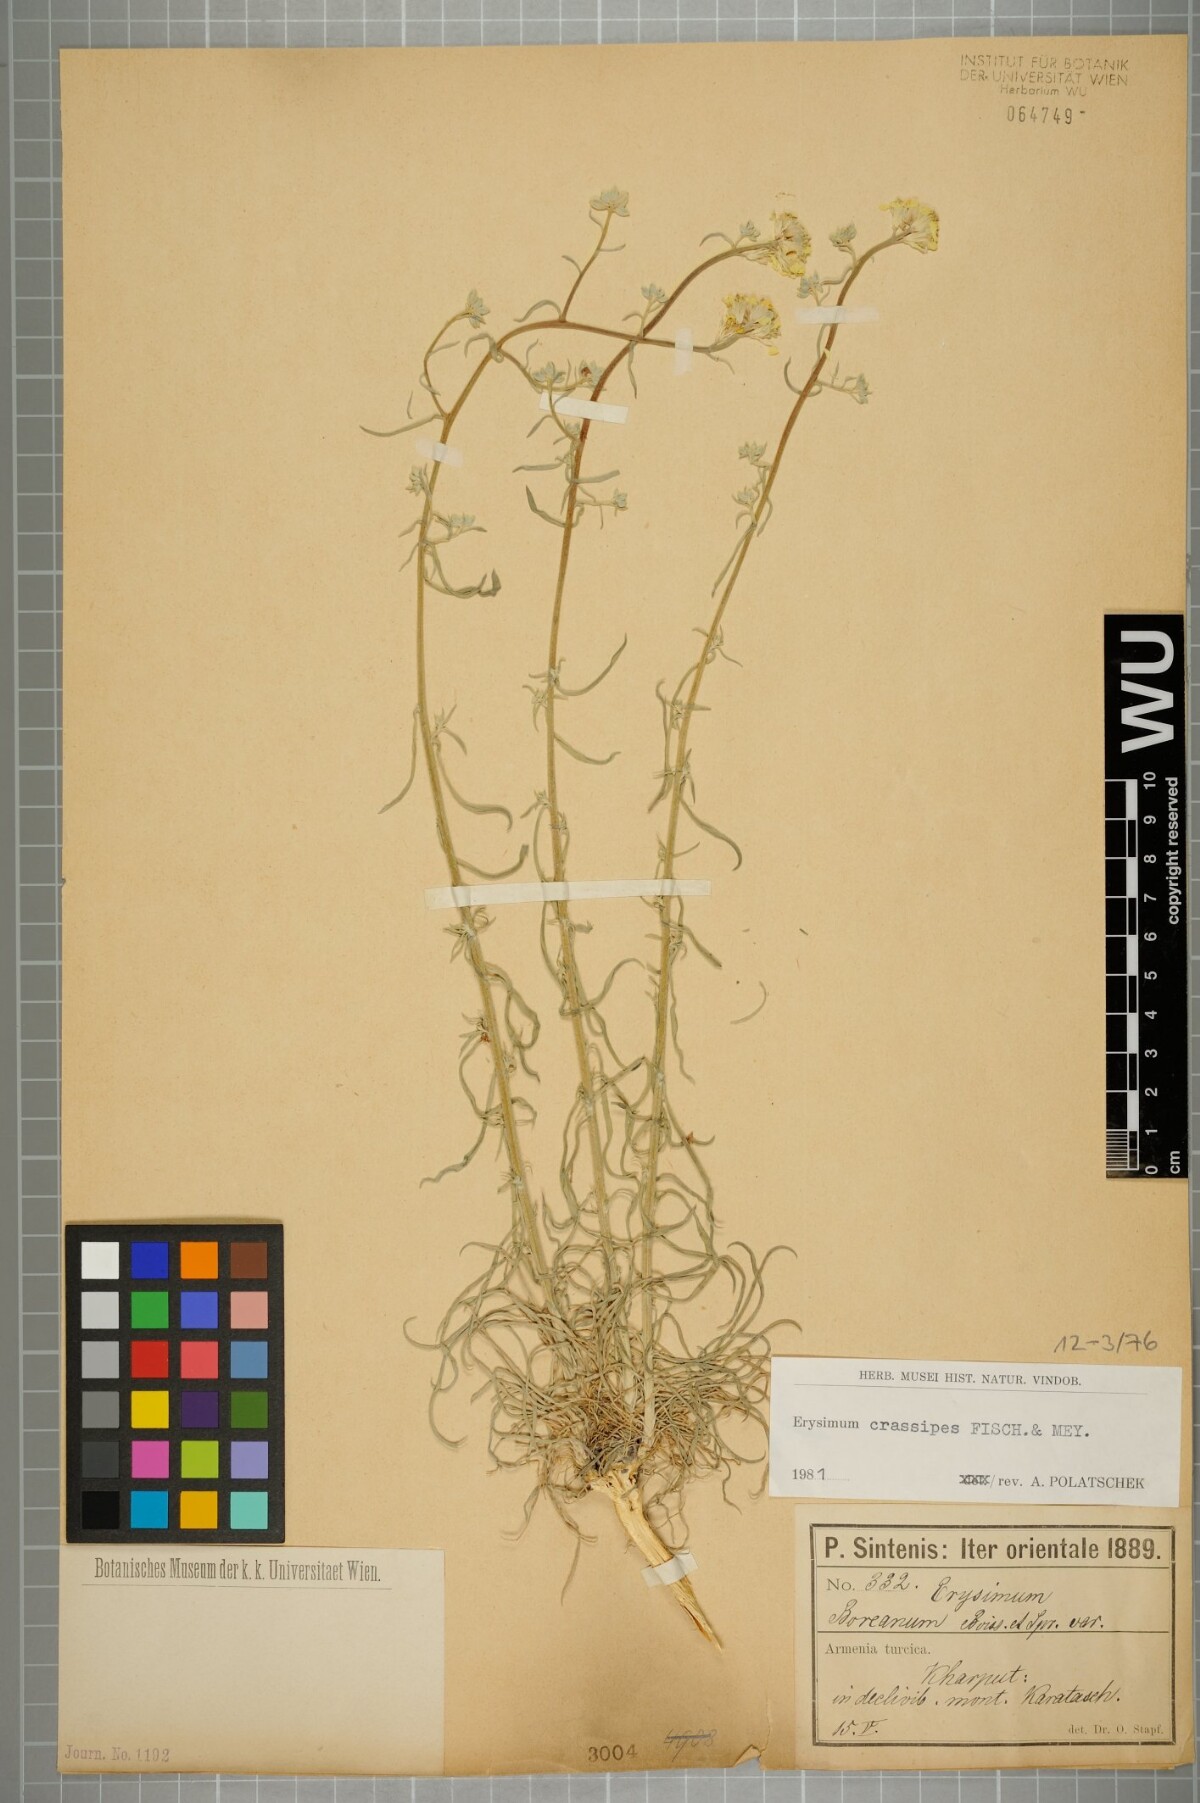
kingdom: Plantae
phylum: Tracheophyta
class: Magnoliopsida
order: Brassicales
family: Brassicaceae
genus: Erysimum
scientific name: Erysimum crassipes
